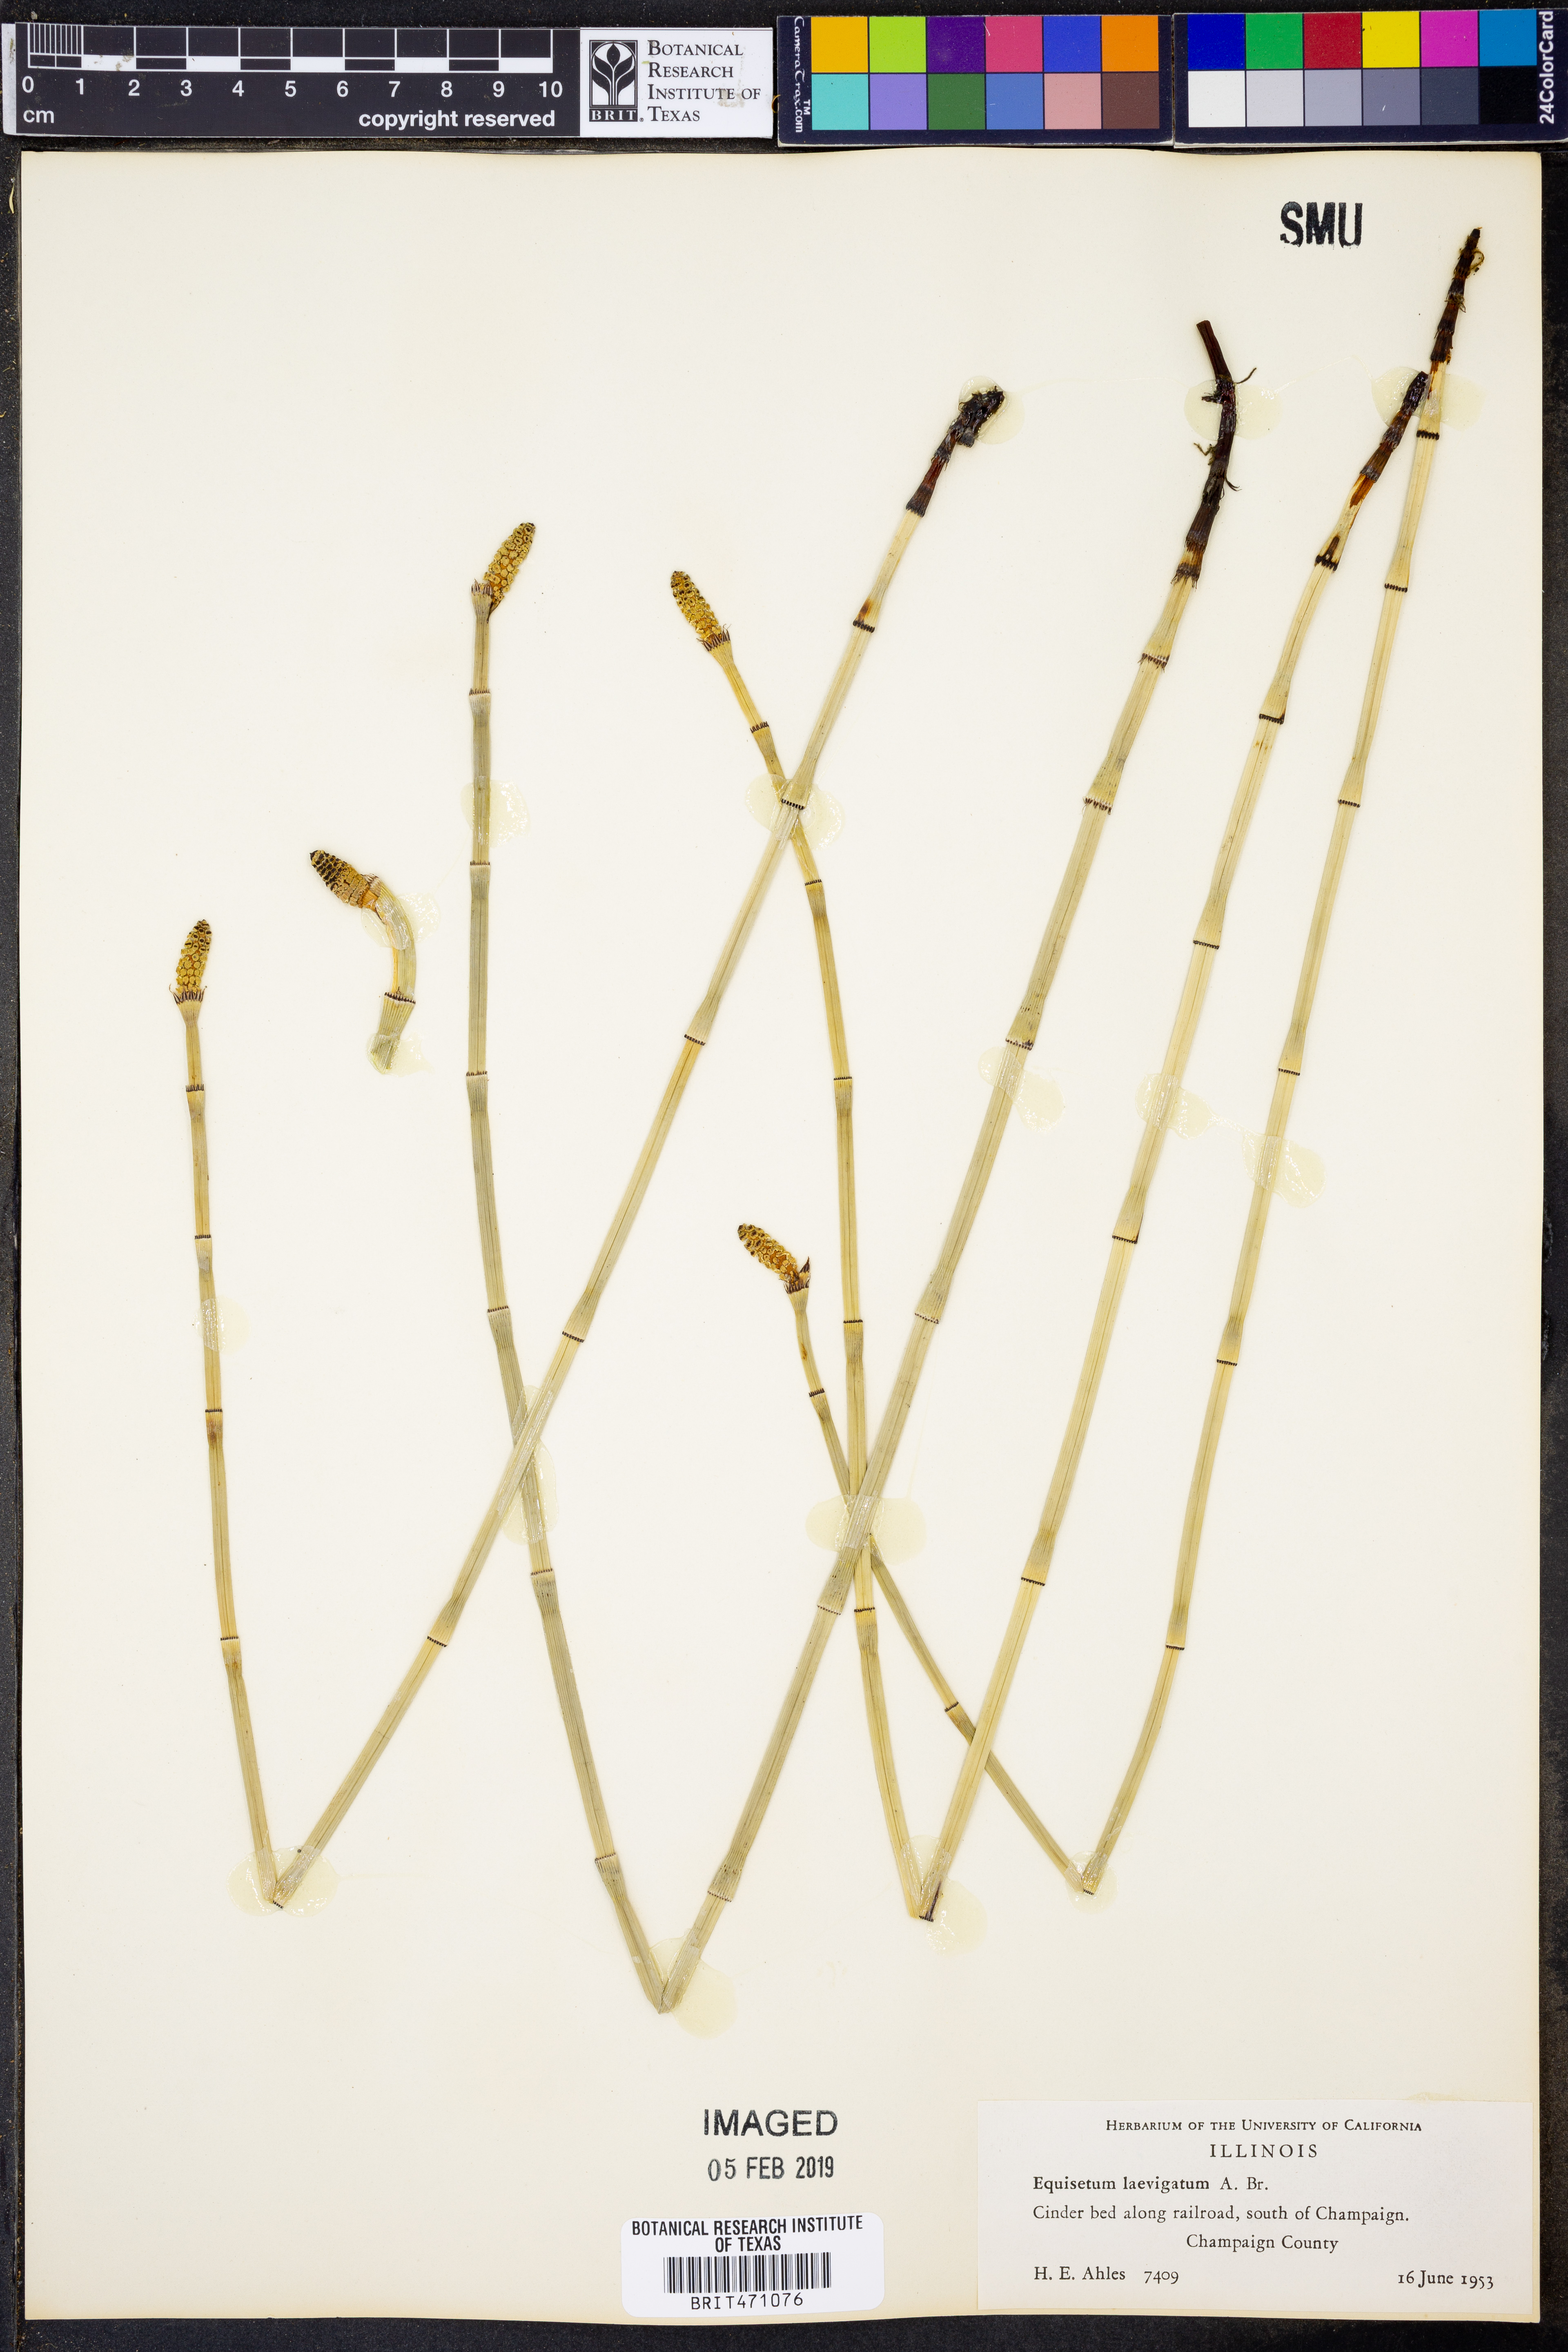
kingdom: Plantae
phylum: Tracheophyta
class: Polypodiopsida
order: Equisetales
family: Equisetaceae
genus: Equisetum
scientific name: Equisetum laevigatum
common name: Smooth scouring-rush
